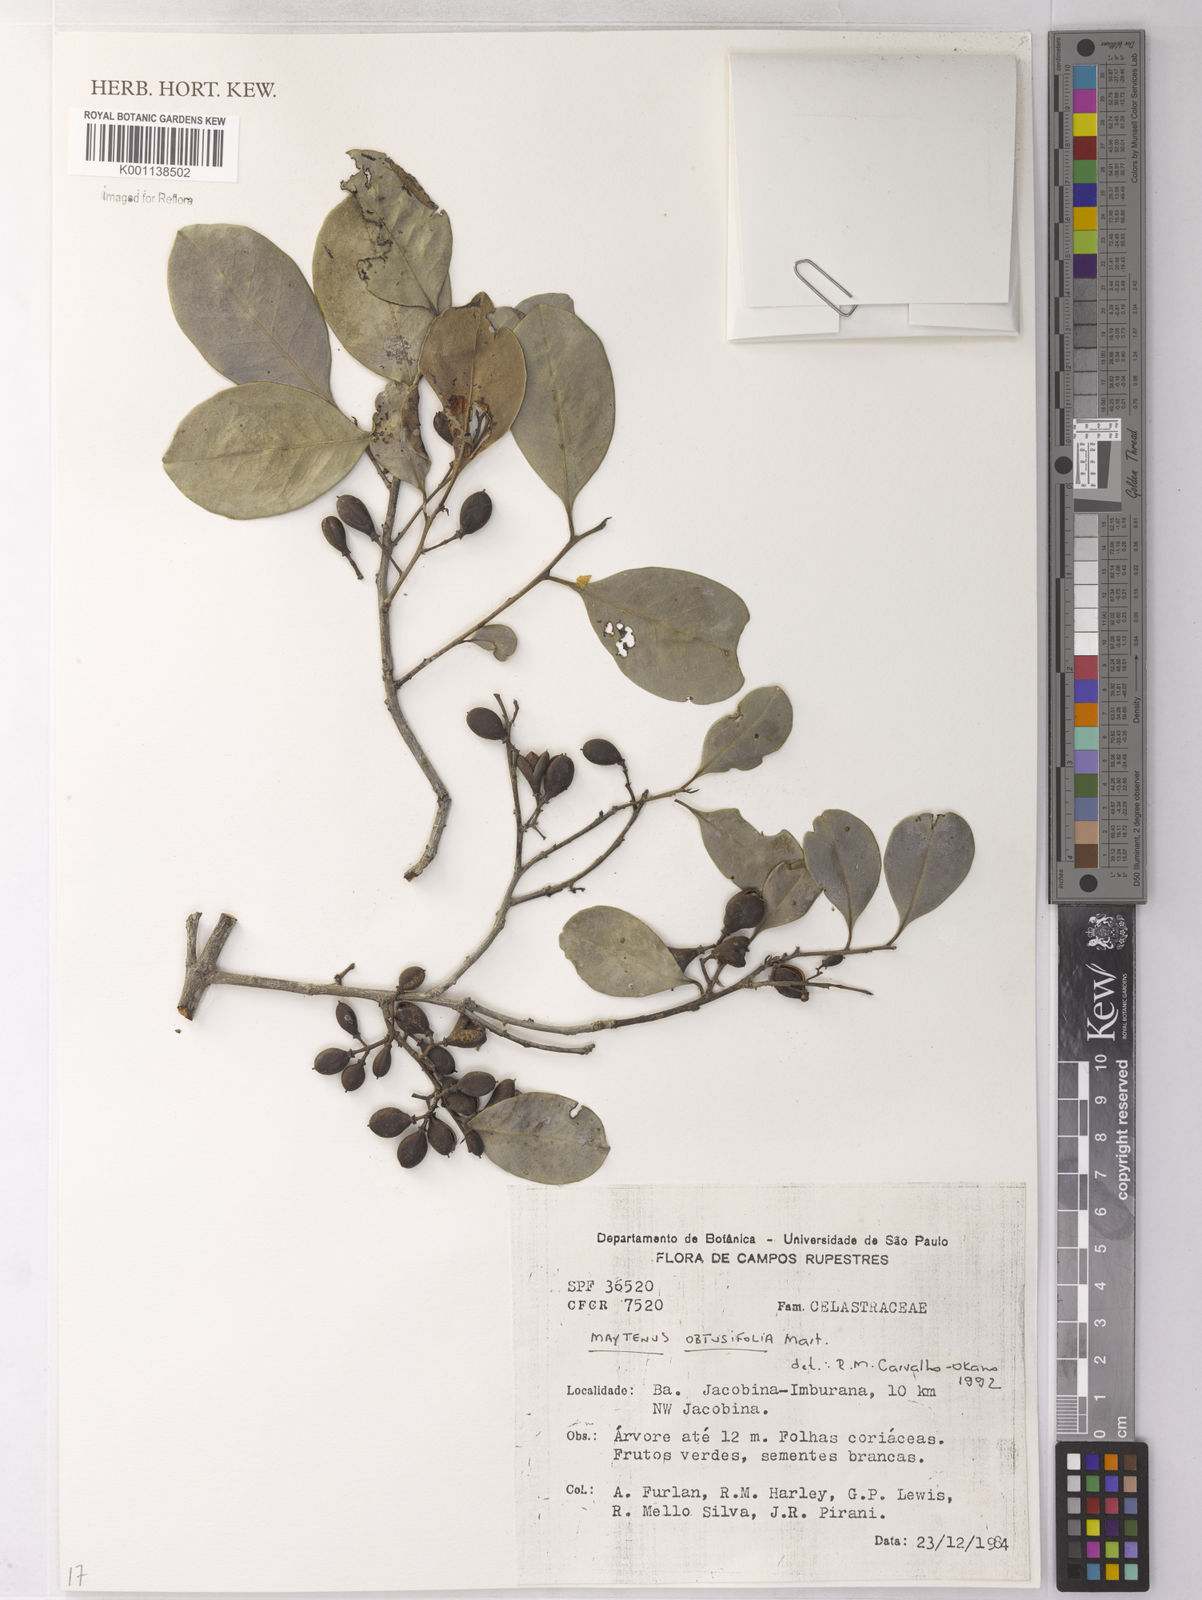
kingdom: Plantae
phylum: Tracheophyta
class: Magnoliopsida
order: Celastrales
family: Celastraceae
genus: Monteverdia
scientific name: Monteverdia obtusifolia
